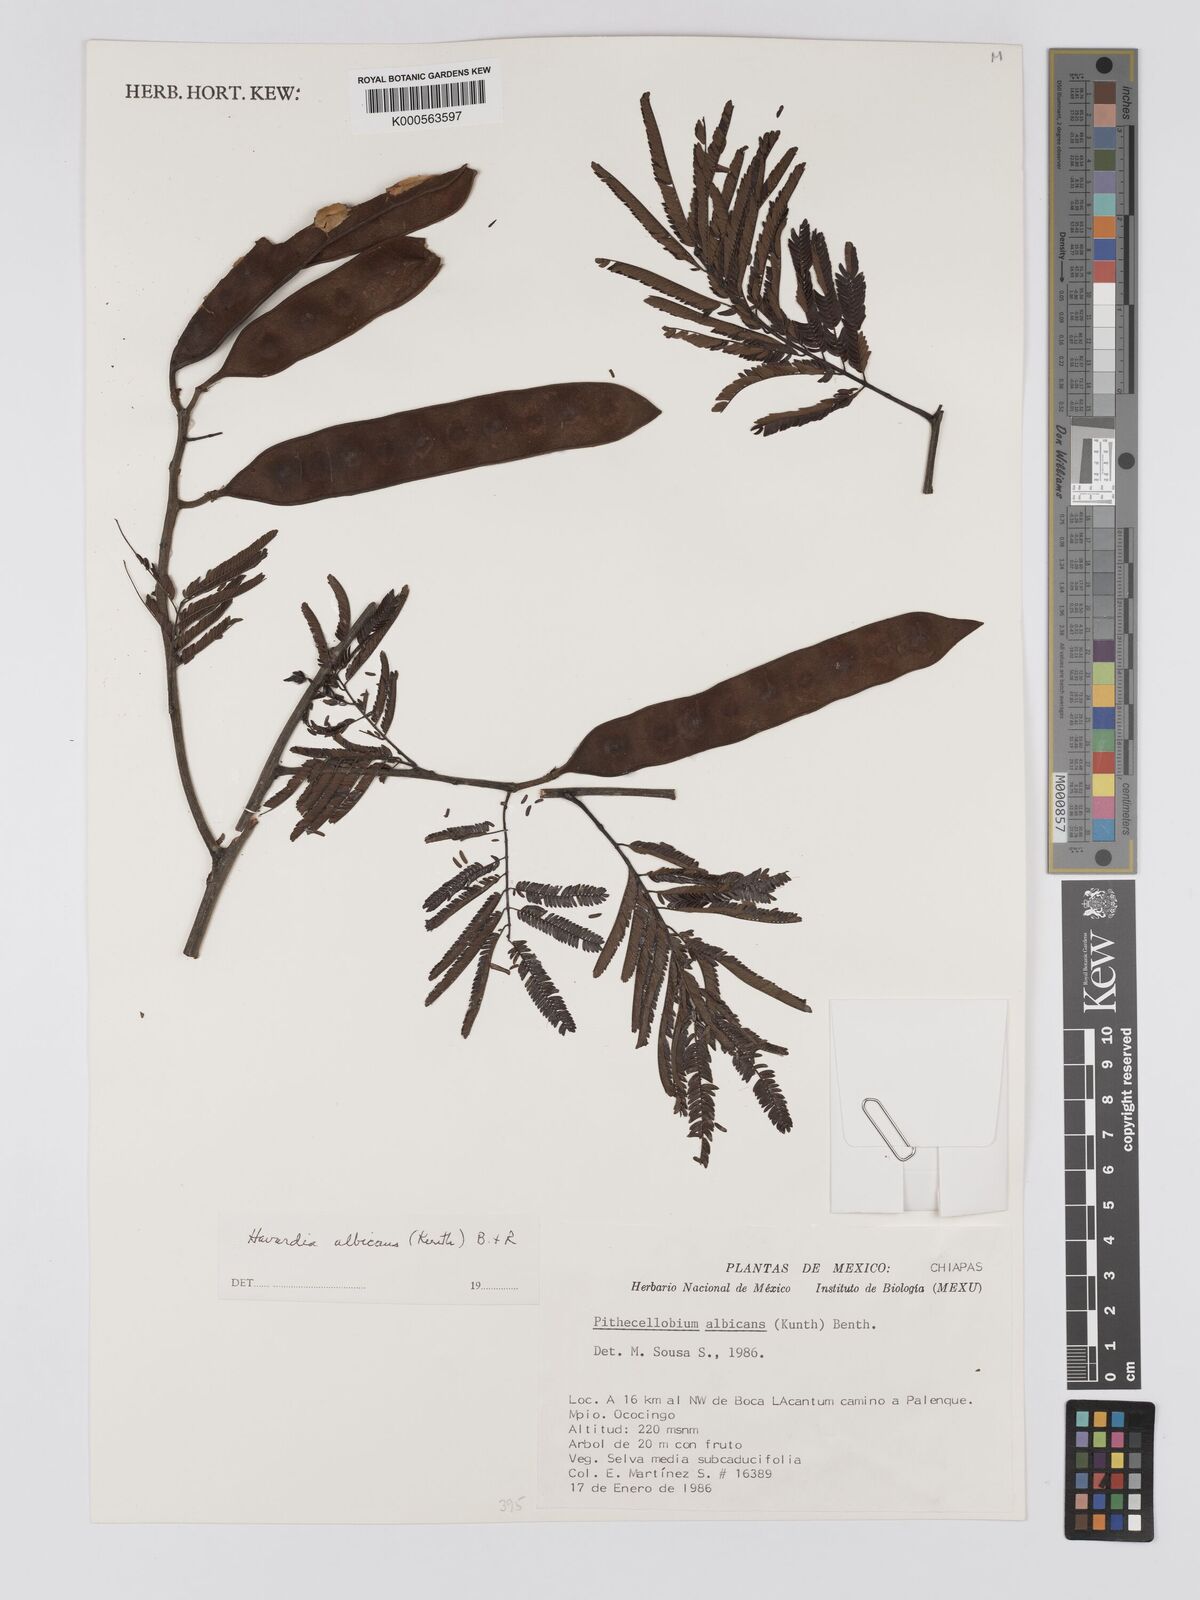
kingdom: Plantae
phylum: Tracheophyta
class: Magnoliopsida
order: Fabales
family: Fabaceae
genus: Havardia
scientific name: Havardia albicans
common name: Huisache
